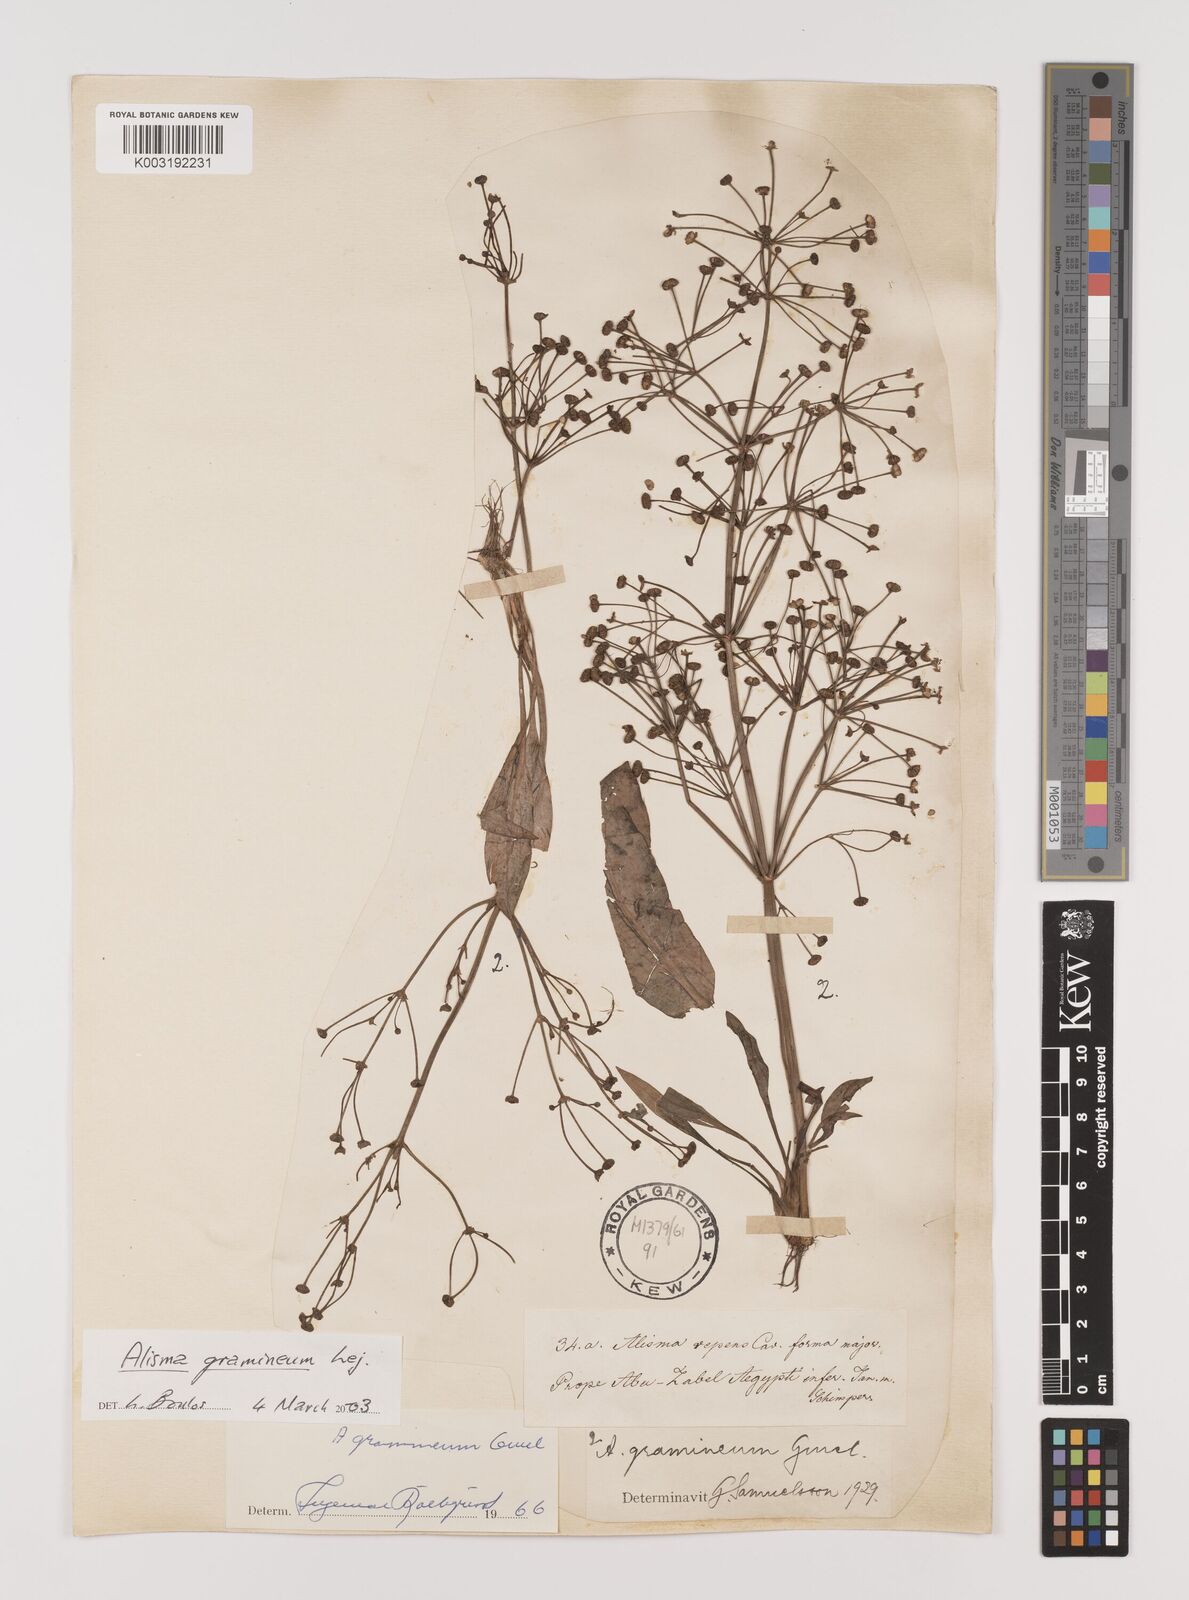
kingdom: Plantae
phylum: Tracheophyta
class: Liliopsida
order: Alismatales
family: Alismataceae
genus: Alisma
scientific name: Alisma gramineum
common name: Ribbon-leaved water-plantain
